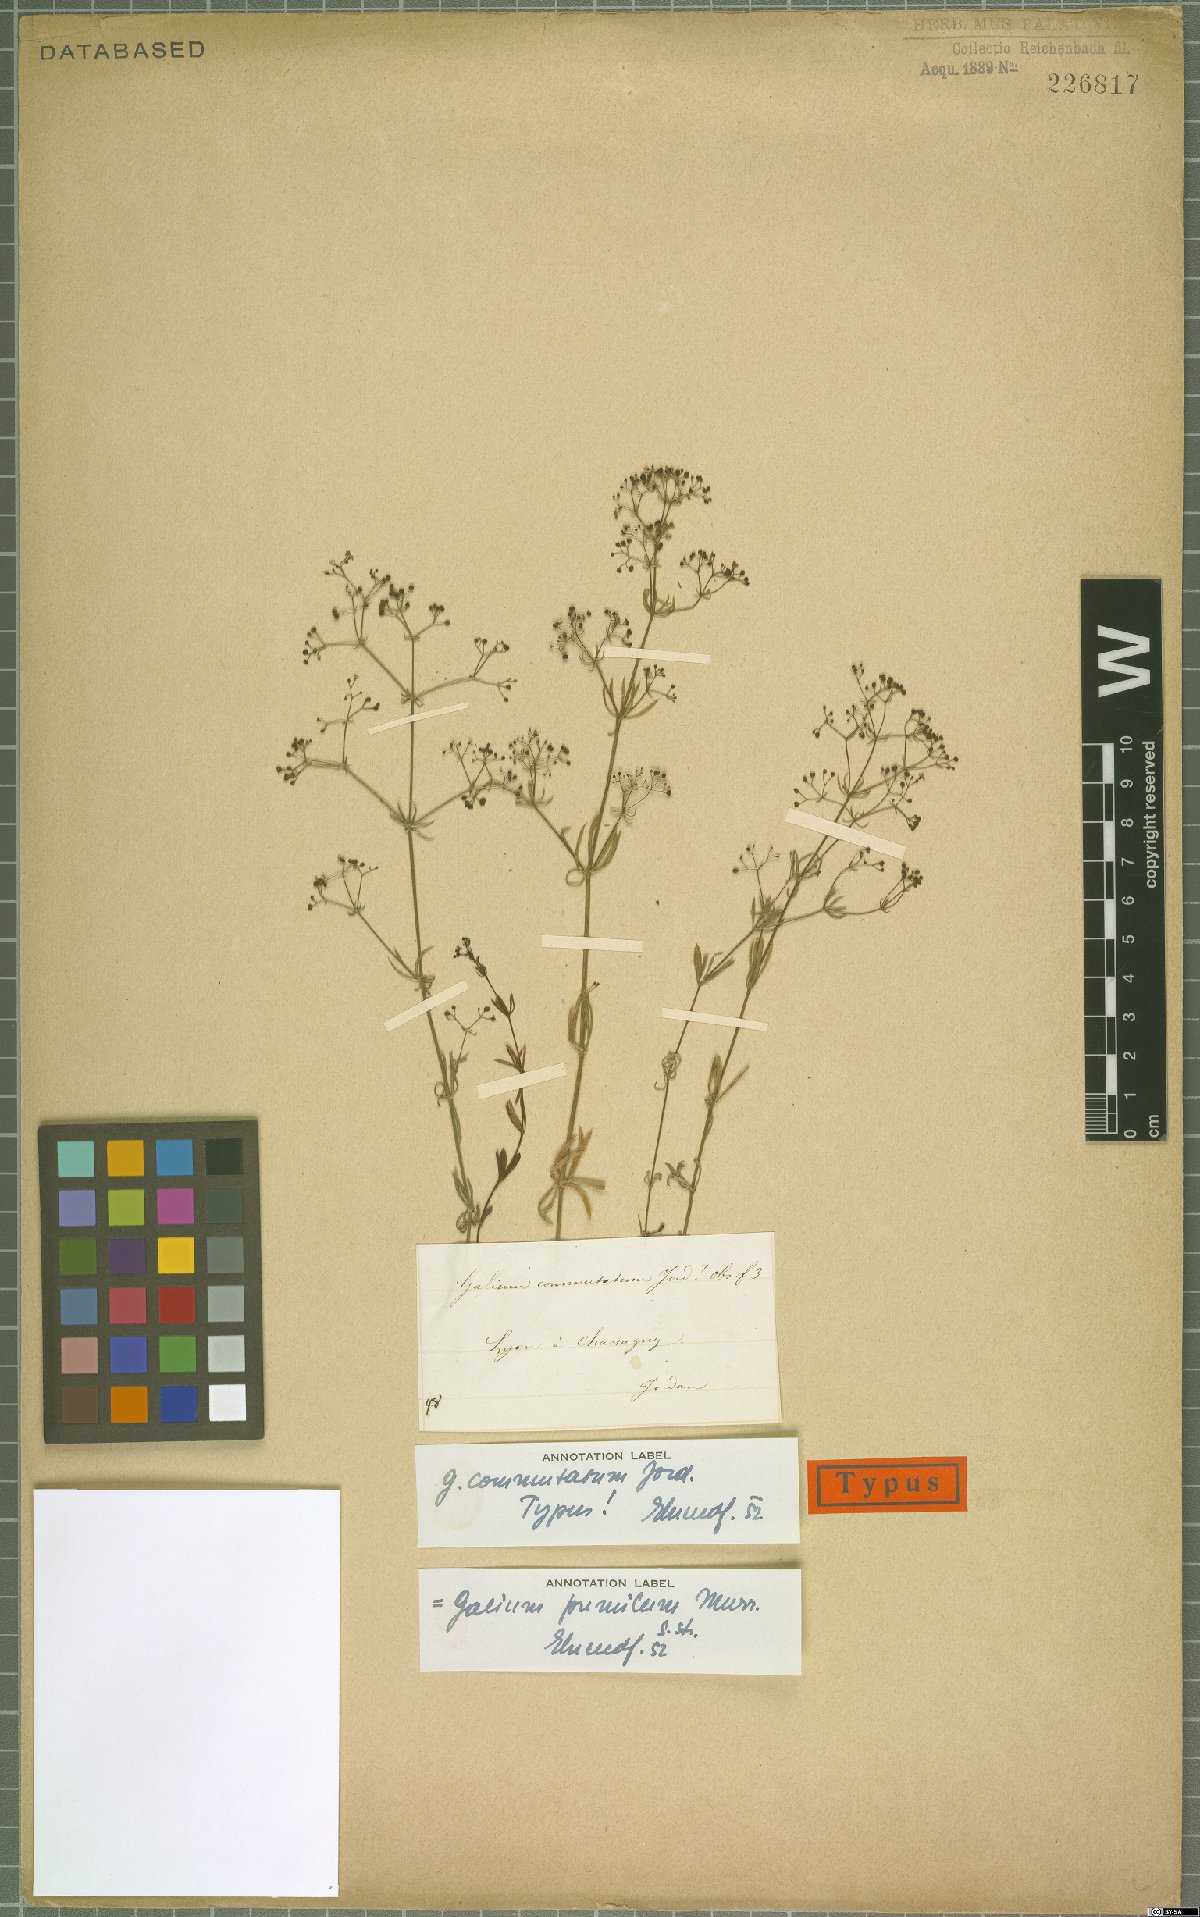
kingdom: Plantae
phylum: Tracheophyta
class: Magnoliopsida
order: Gentianales
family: Rubiaceae
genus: Galium
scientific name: Galium pumilum
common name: Slender bedstraw
